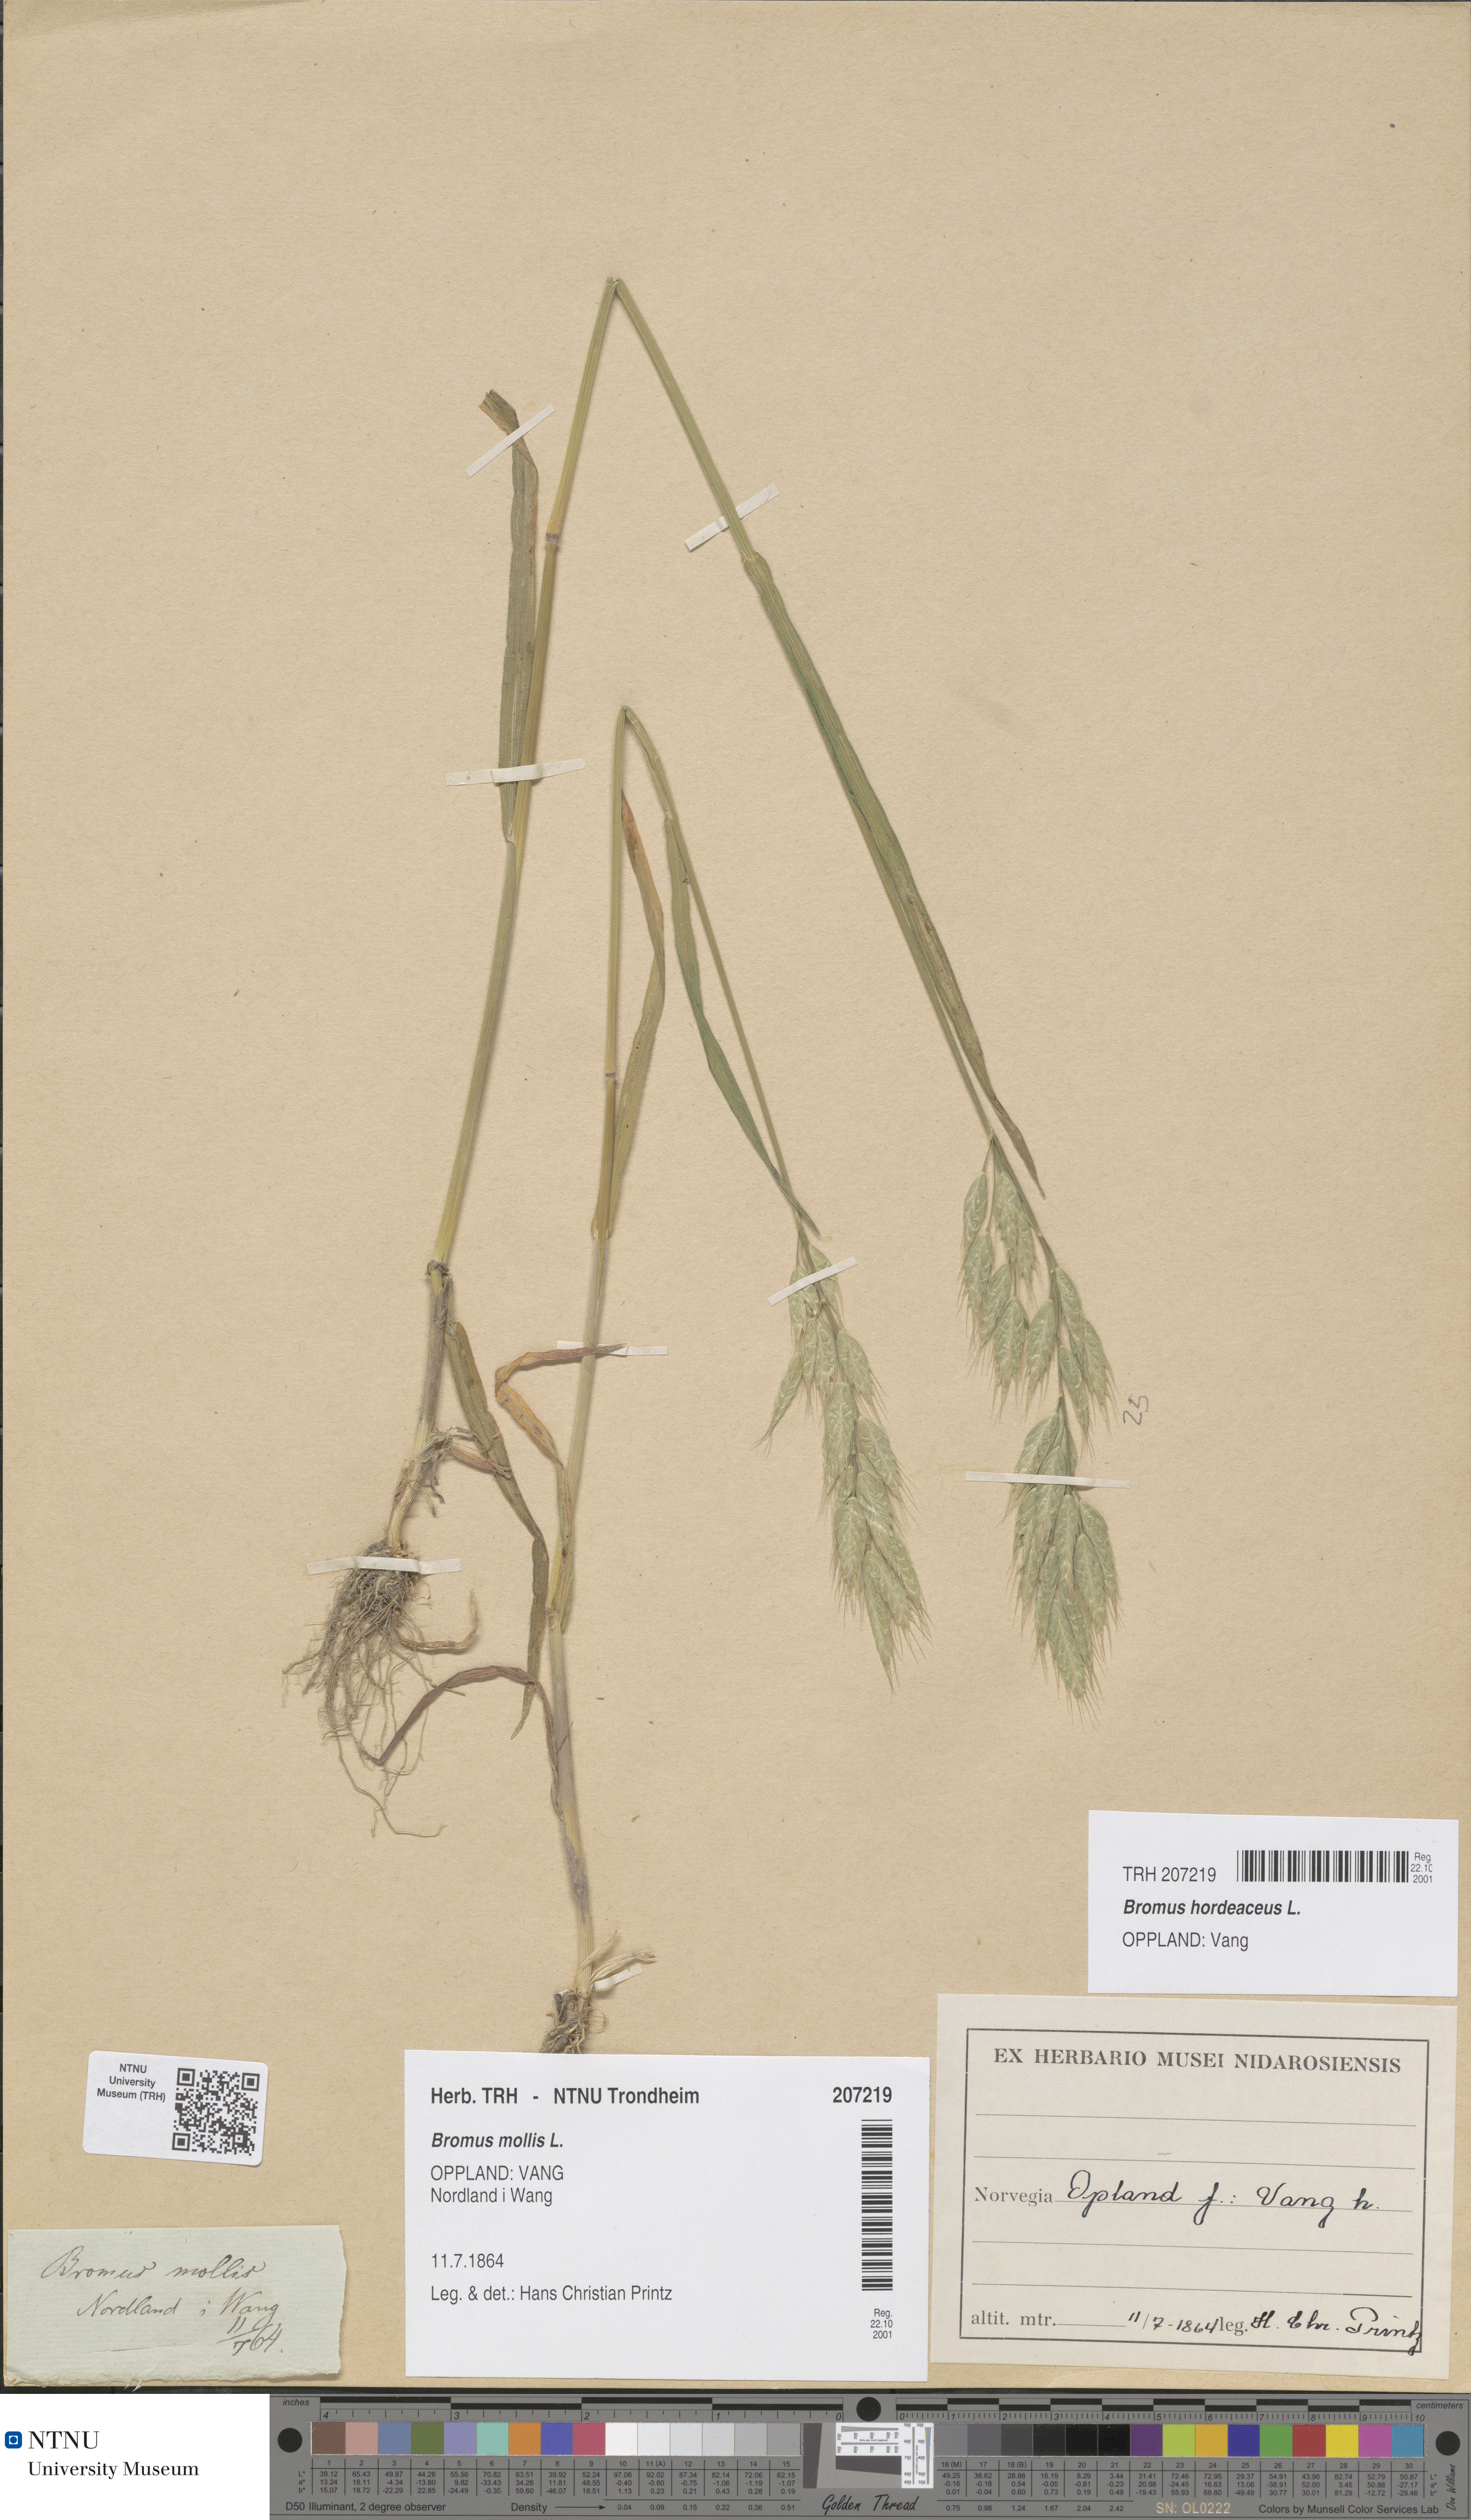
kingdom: Plantae
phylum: Tracheophyta
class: Liliopsida
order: Poales
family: Poaceae
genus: Bromus
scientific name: Bromus hordeaceus
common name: Soft brome
